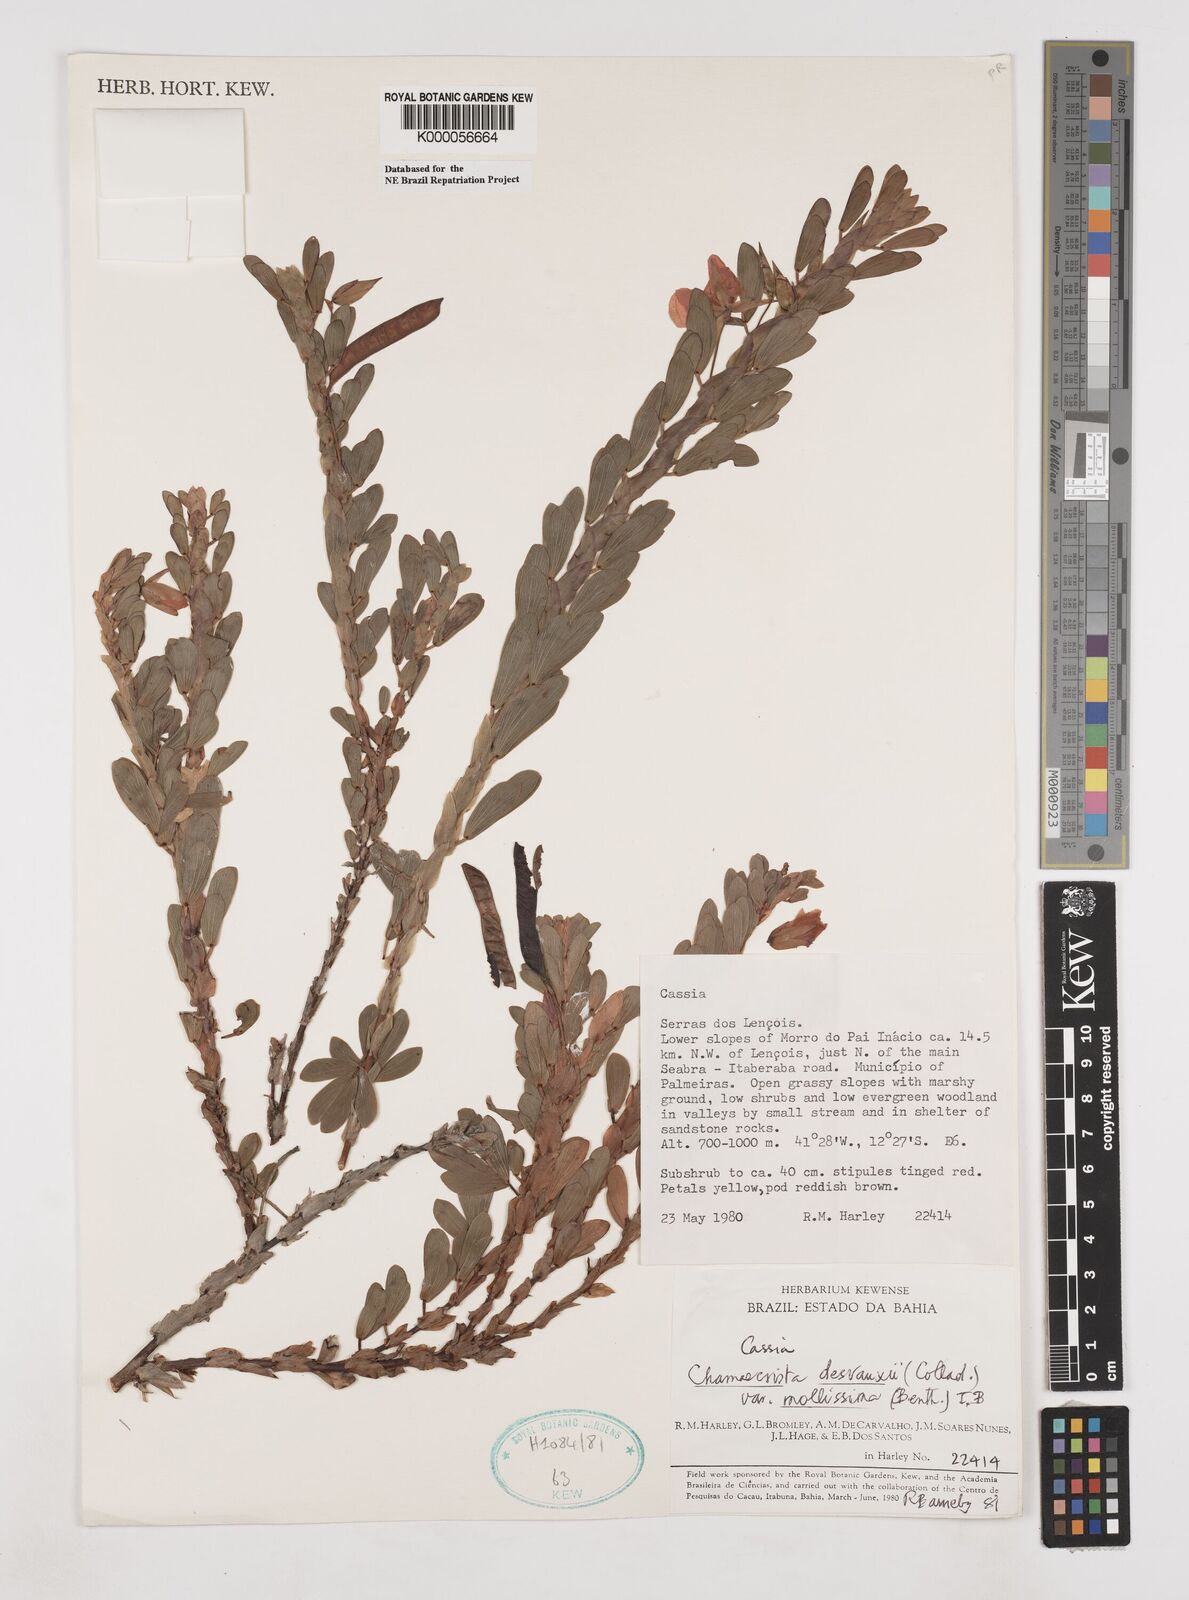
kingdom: Plantae
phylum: Tracheophyta
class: Magnoliopsida
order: Fabales
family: Fabaceae
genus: Chamaecrista
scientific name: Chamaecrista desvauxii
